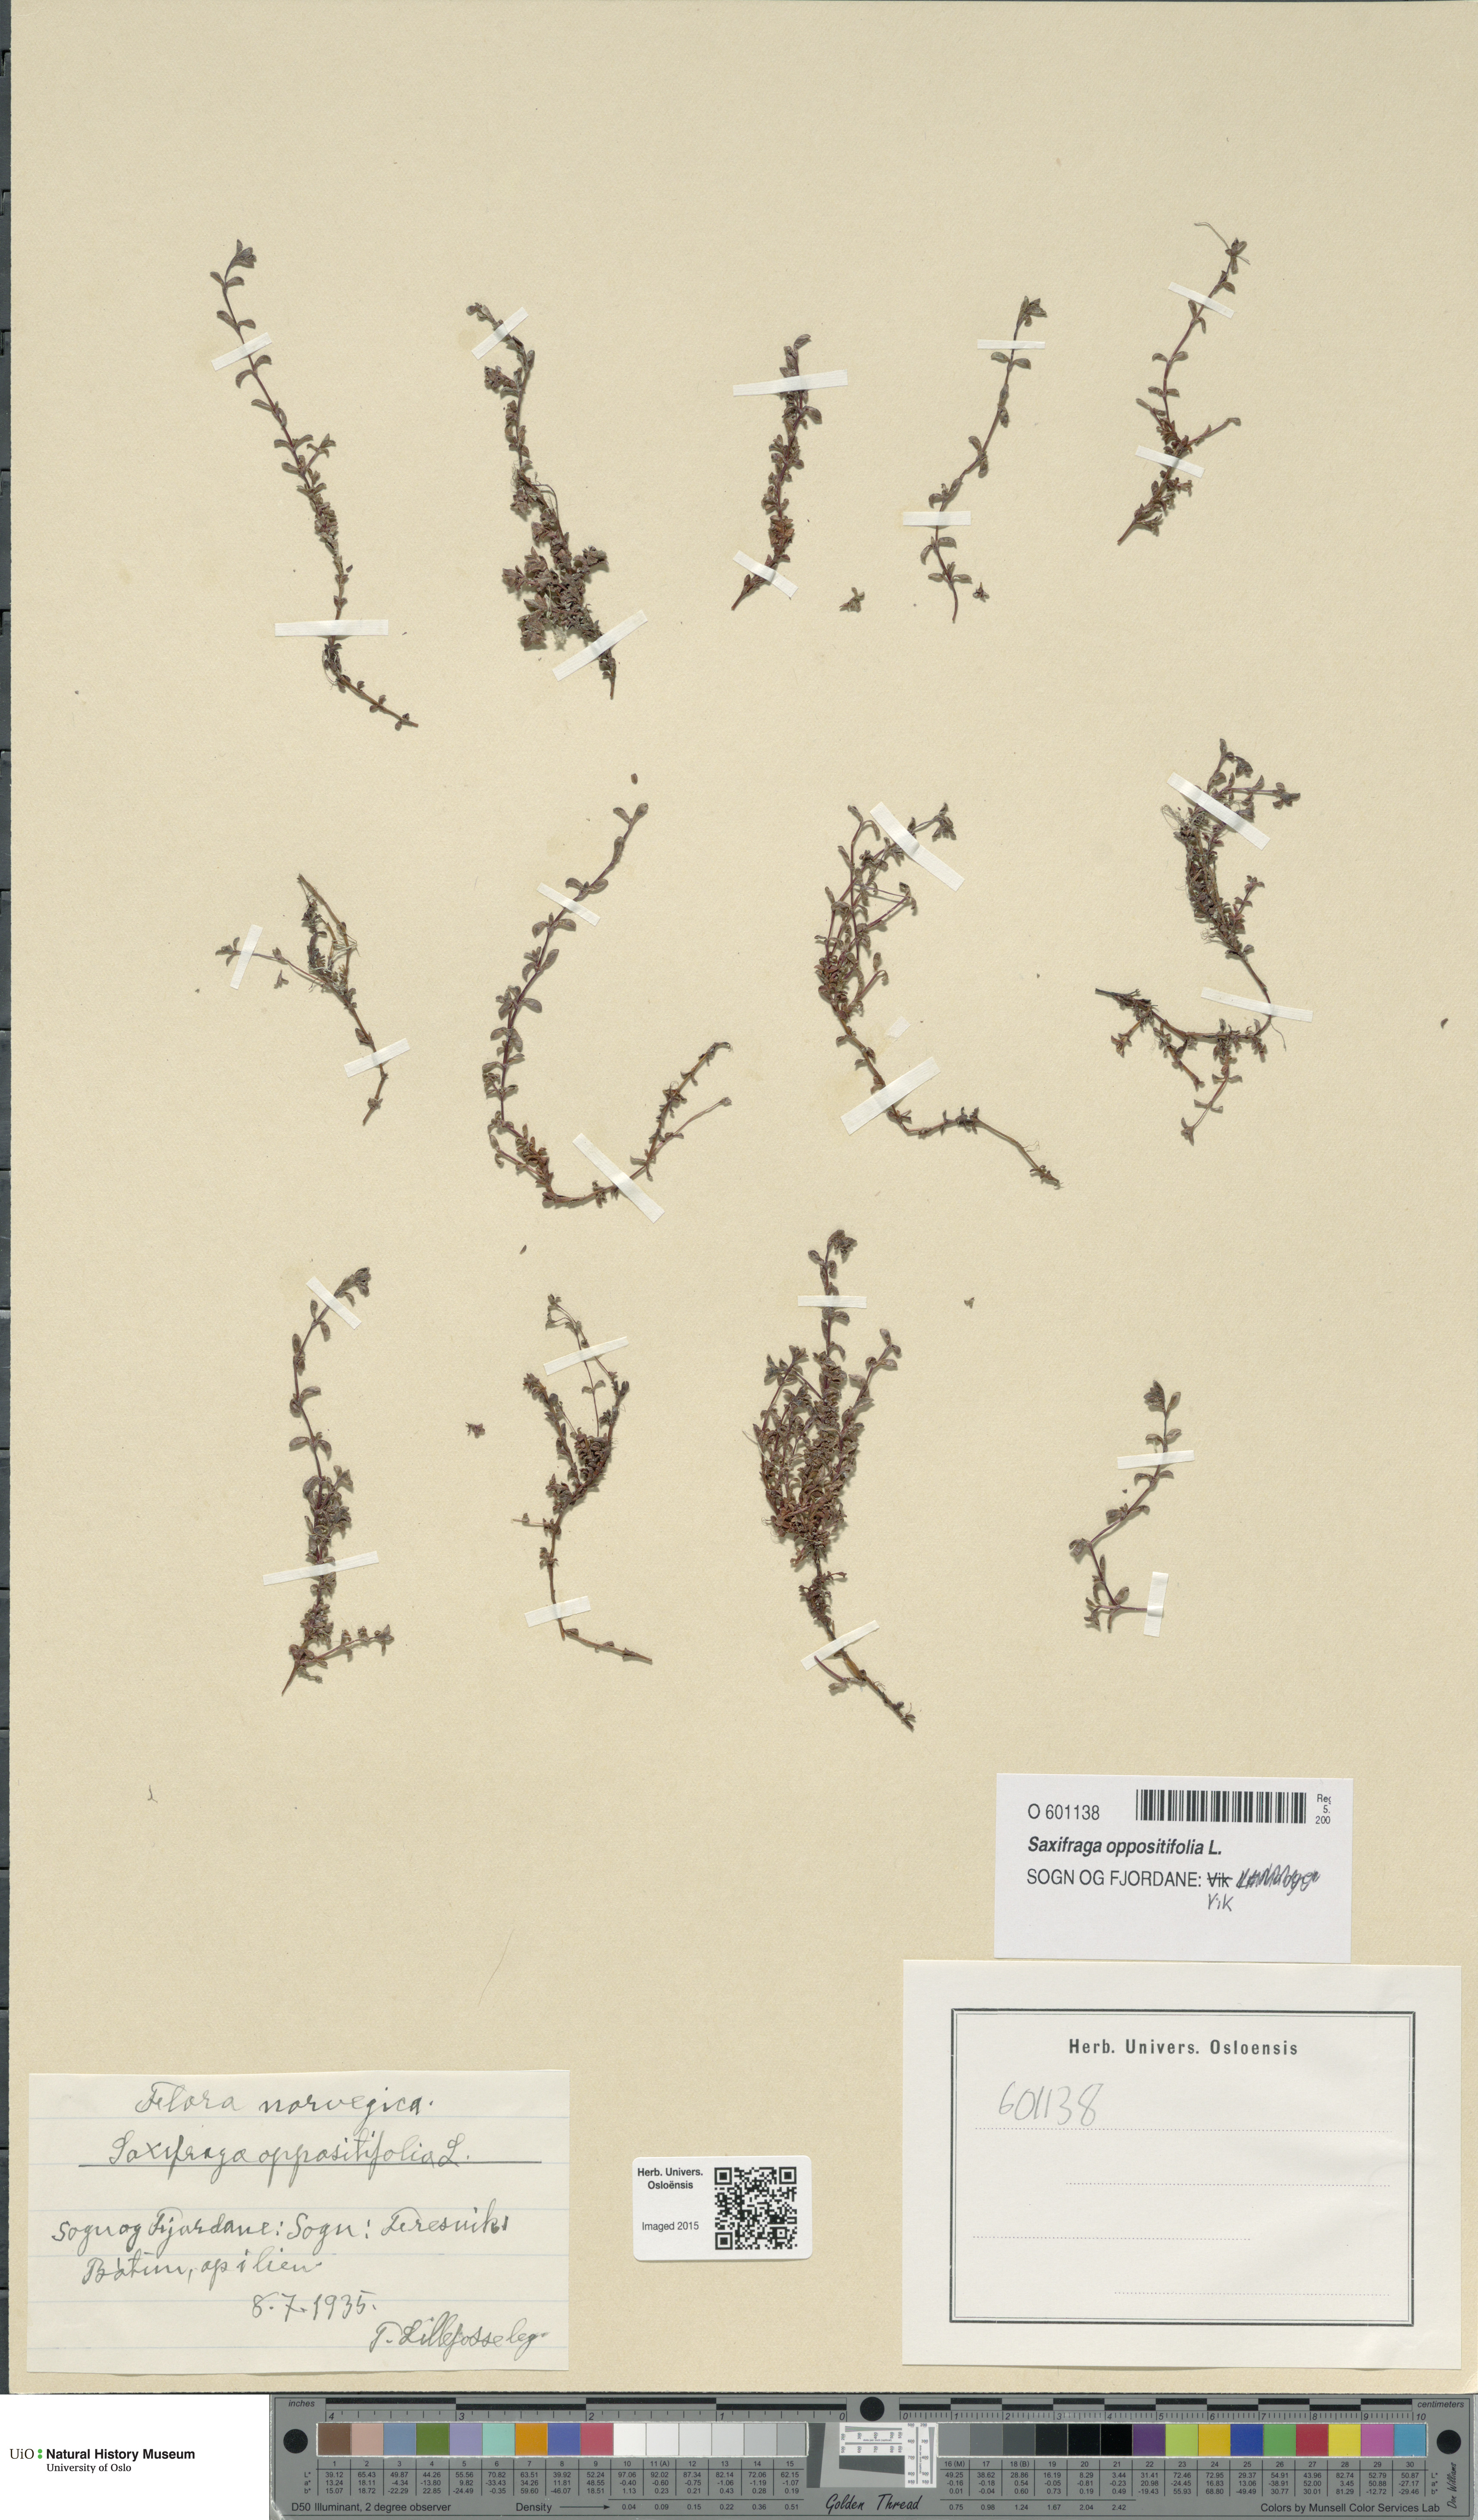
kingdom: Plantae
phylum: Tracheophyta
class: Magnoliopsida
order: Saxifragales
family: Saxifragaceae
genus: Saxifraga
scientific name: Saxifraga oppositifolia
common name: Purple saxifrage
